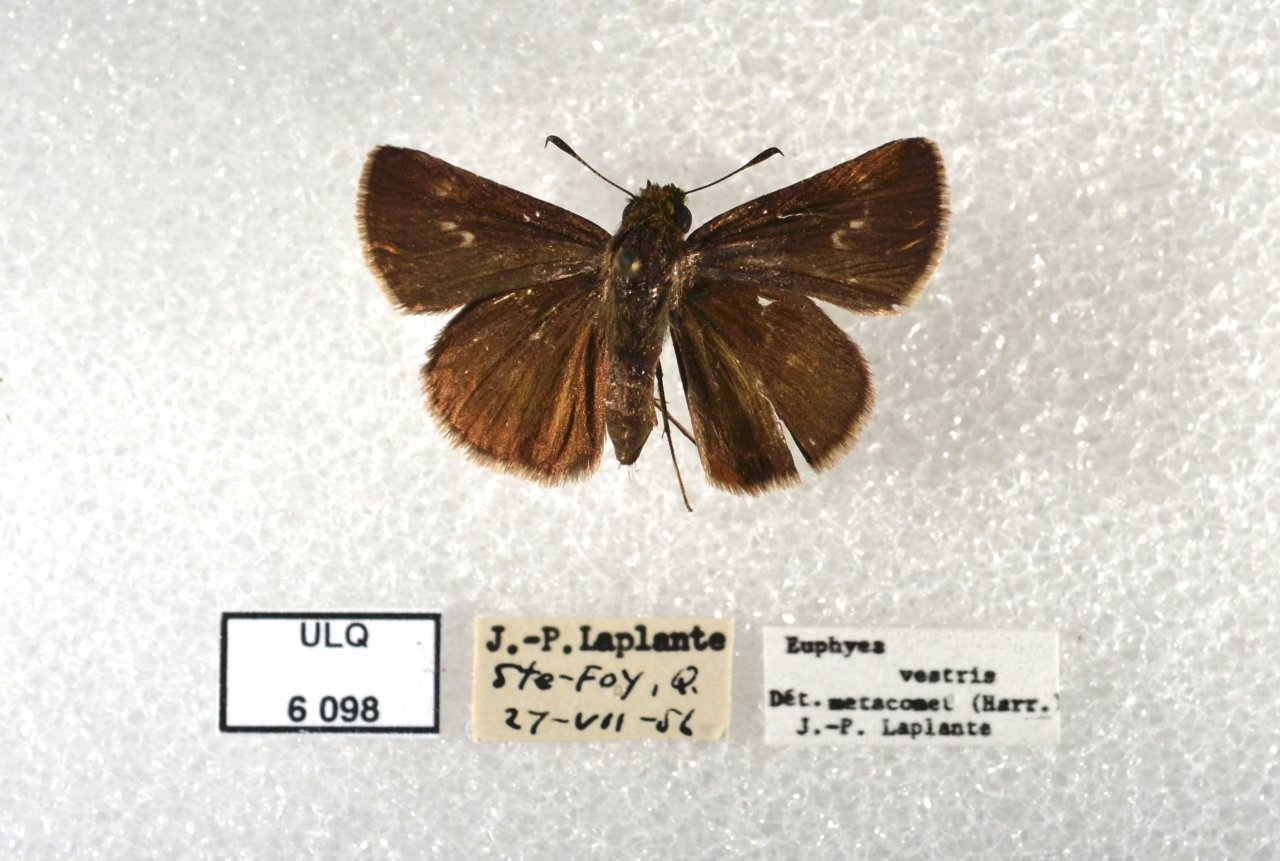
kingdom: Animalia
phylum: Arthropoda
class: Insecta
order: Lepidoptera
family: Hesperiidae
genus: Euphyes
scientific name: Euphyes vestris
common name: Dun Skipper
